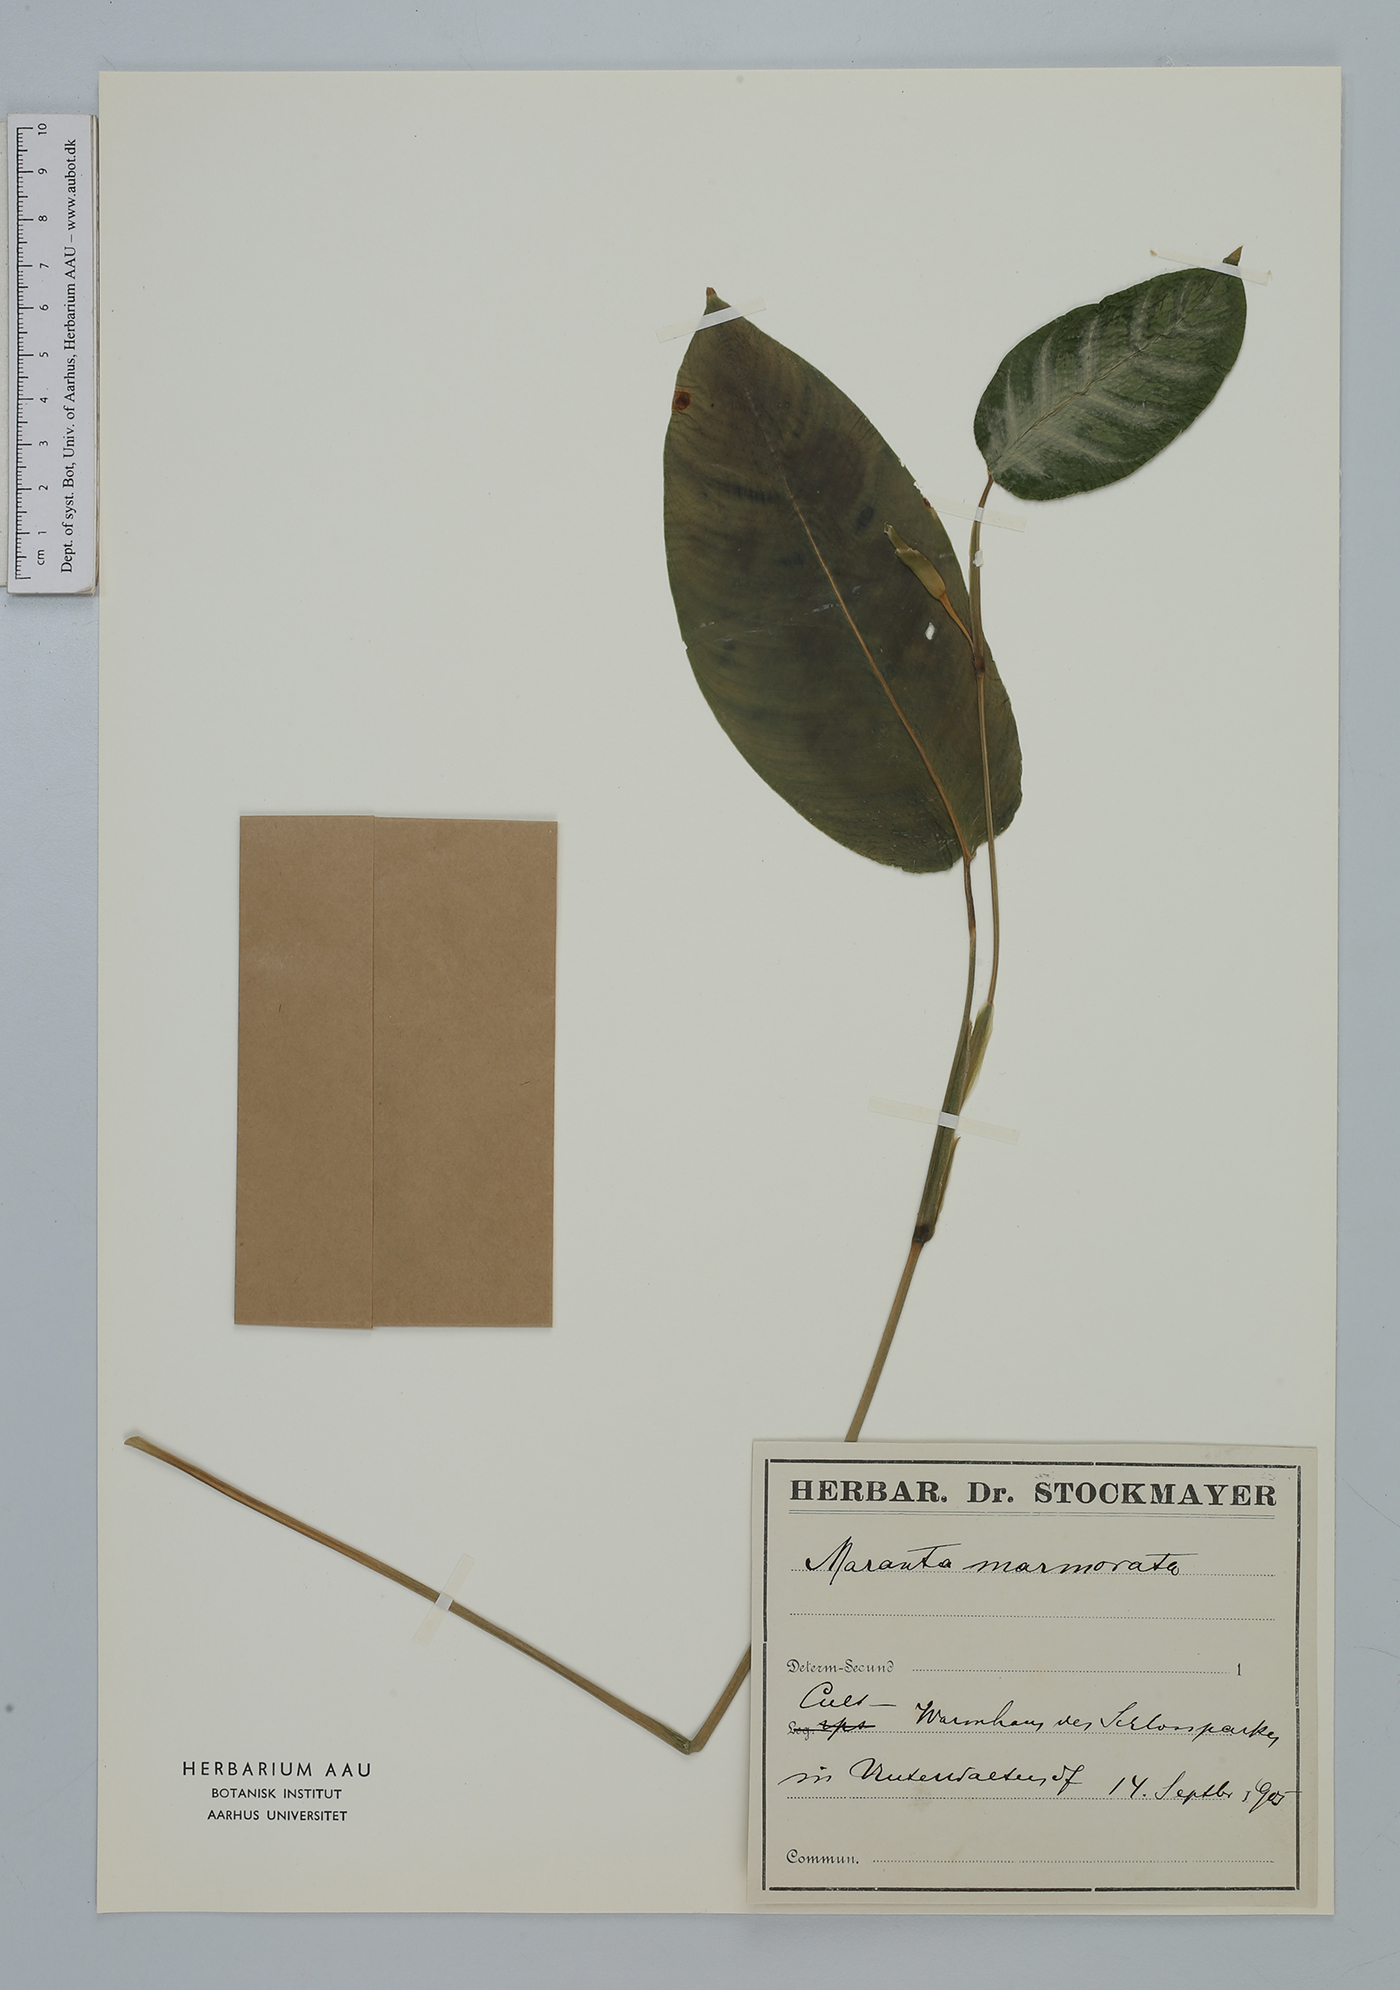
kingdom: Plantae
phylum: Tracheophyta
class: Liliopsida
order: Zingiberales
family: Marantaceae
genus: Maranta
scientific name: Maranta
